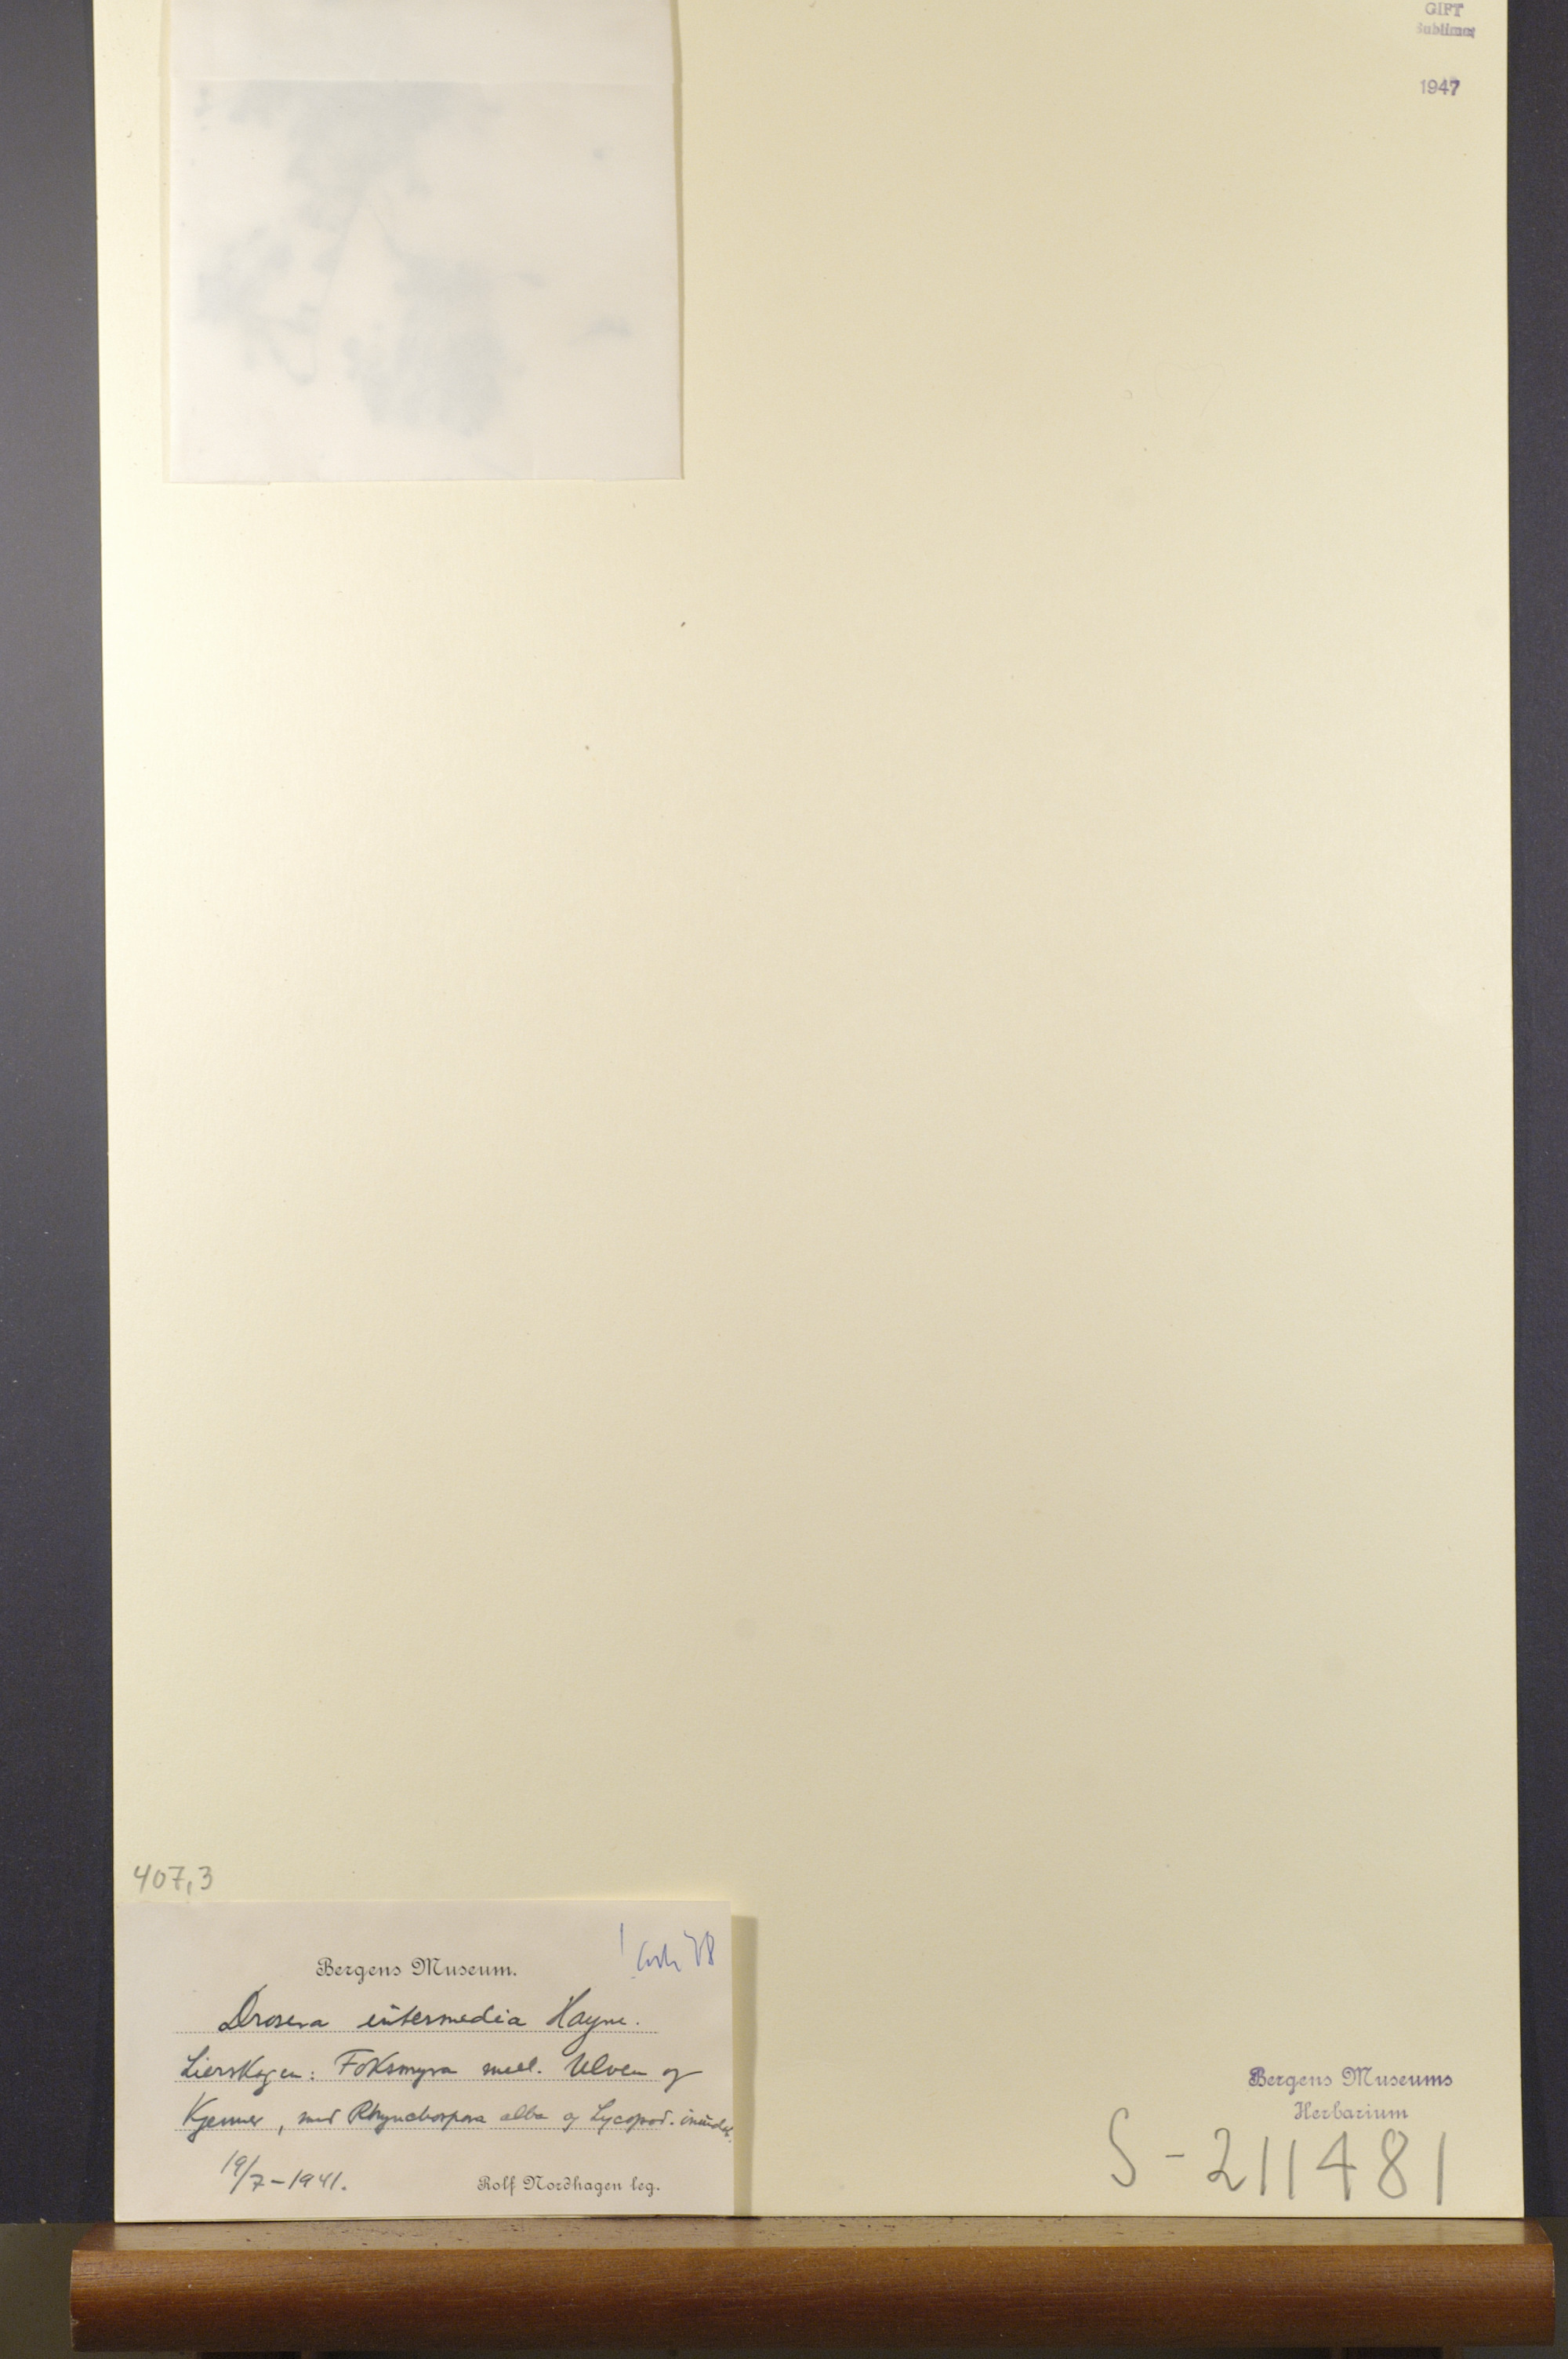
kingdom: Plantae
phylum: Tracheophyta
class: Magnoliopsida
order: Caryophyllales
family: Droseraceae
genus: Drosera
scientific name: Drosera intermedia
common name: Oblong-leaved sundew
